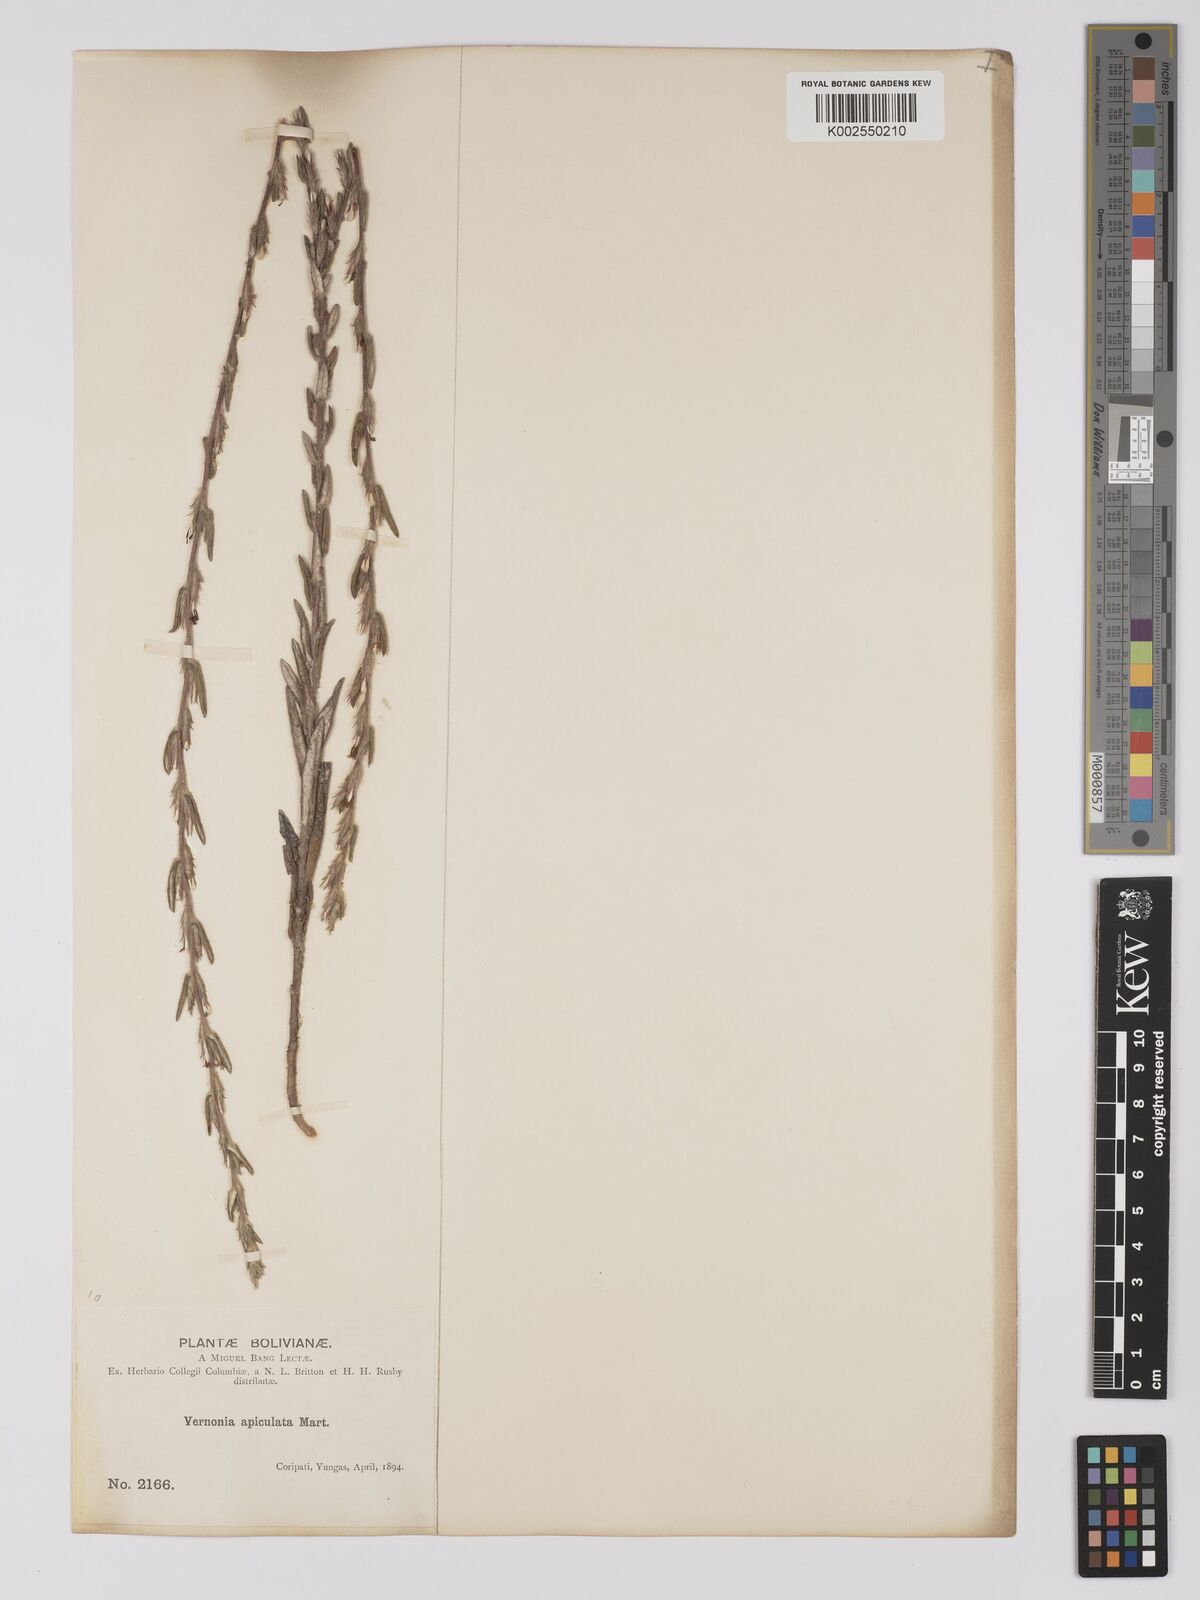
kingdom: Plantae
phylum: Tracheophyta
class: Magnoliopsida
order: Asterales
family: Asteraceae
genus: Stenocephalum
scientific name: Stenocephalum apiculatum
